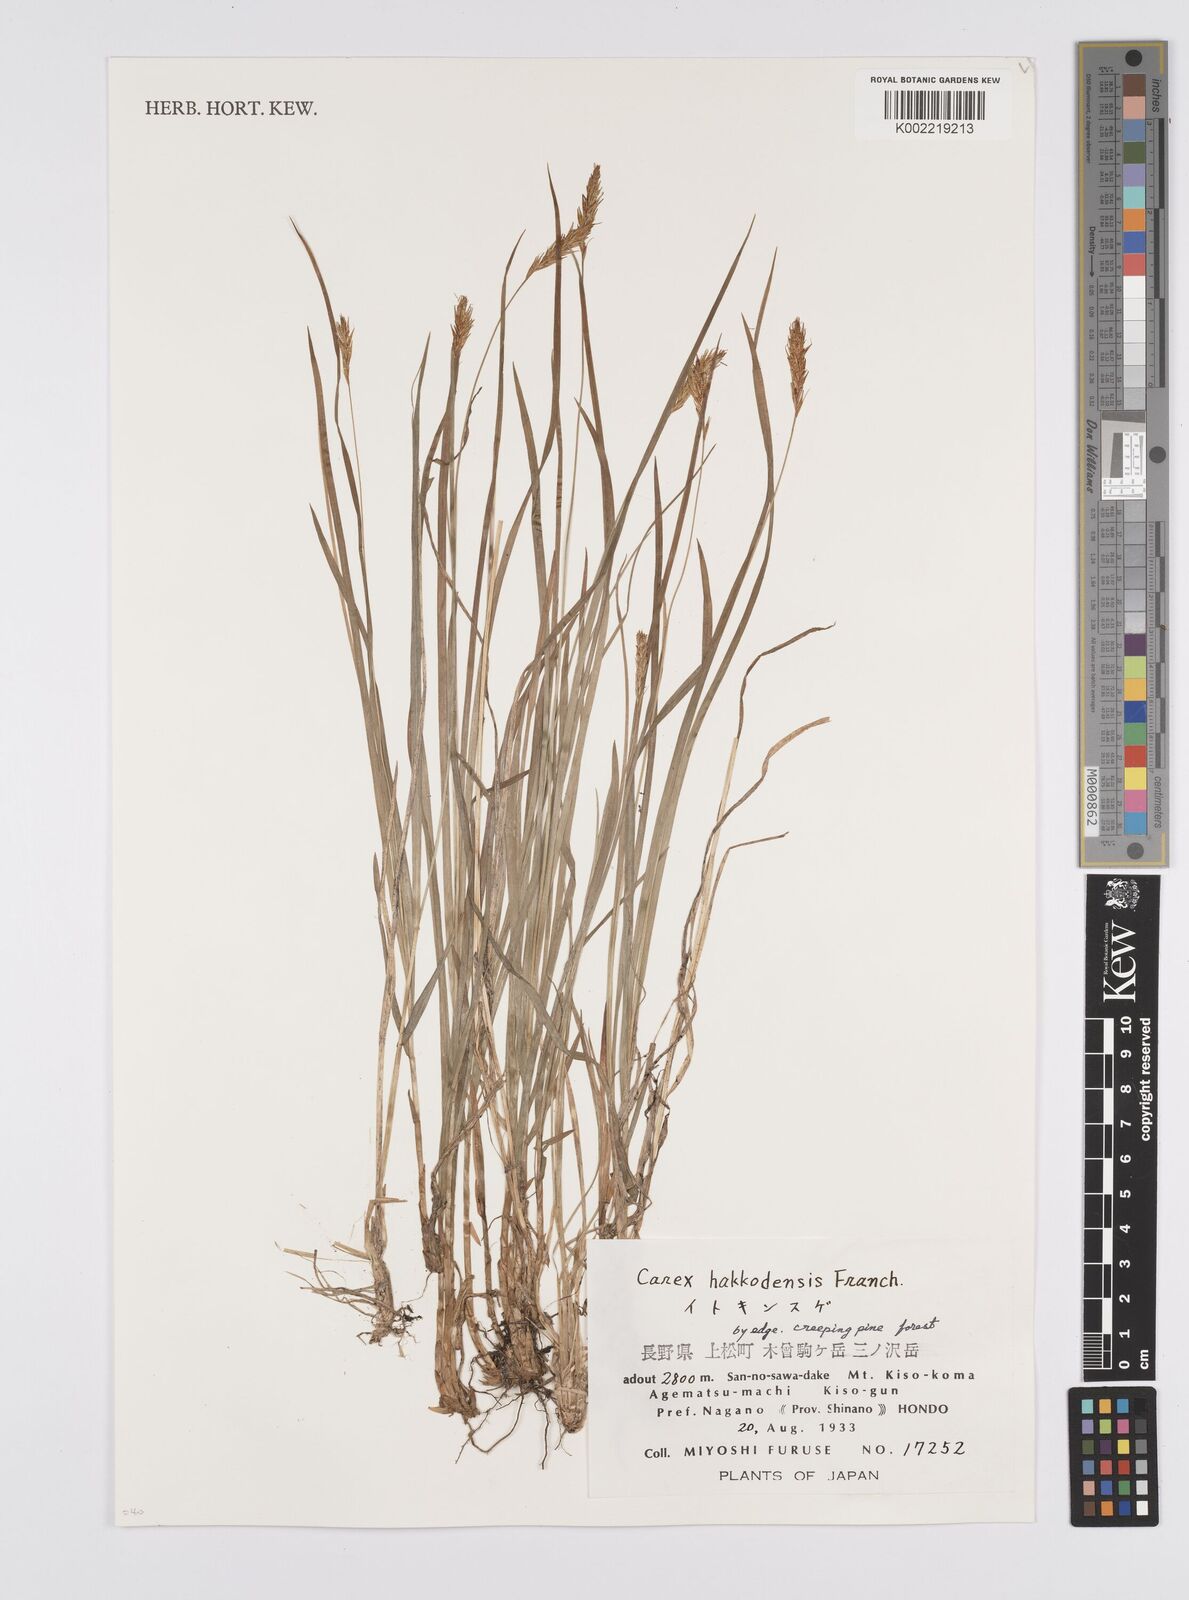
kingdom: Plantae
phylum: Tracheophyta
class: Liliopsida
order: Poales
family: Cyperaceae
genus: Carex
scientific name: Carex hakkodensis
